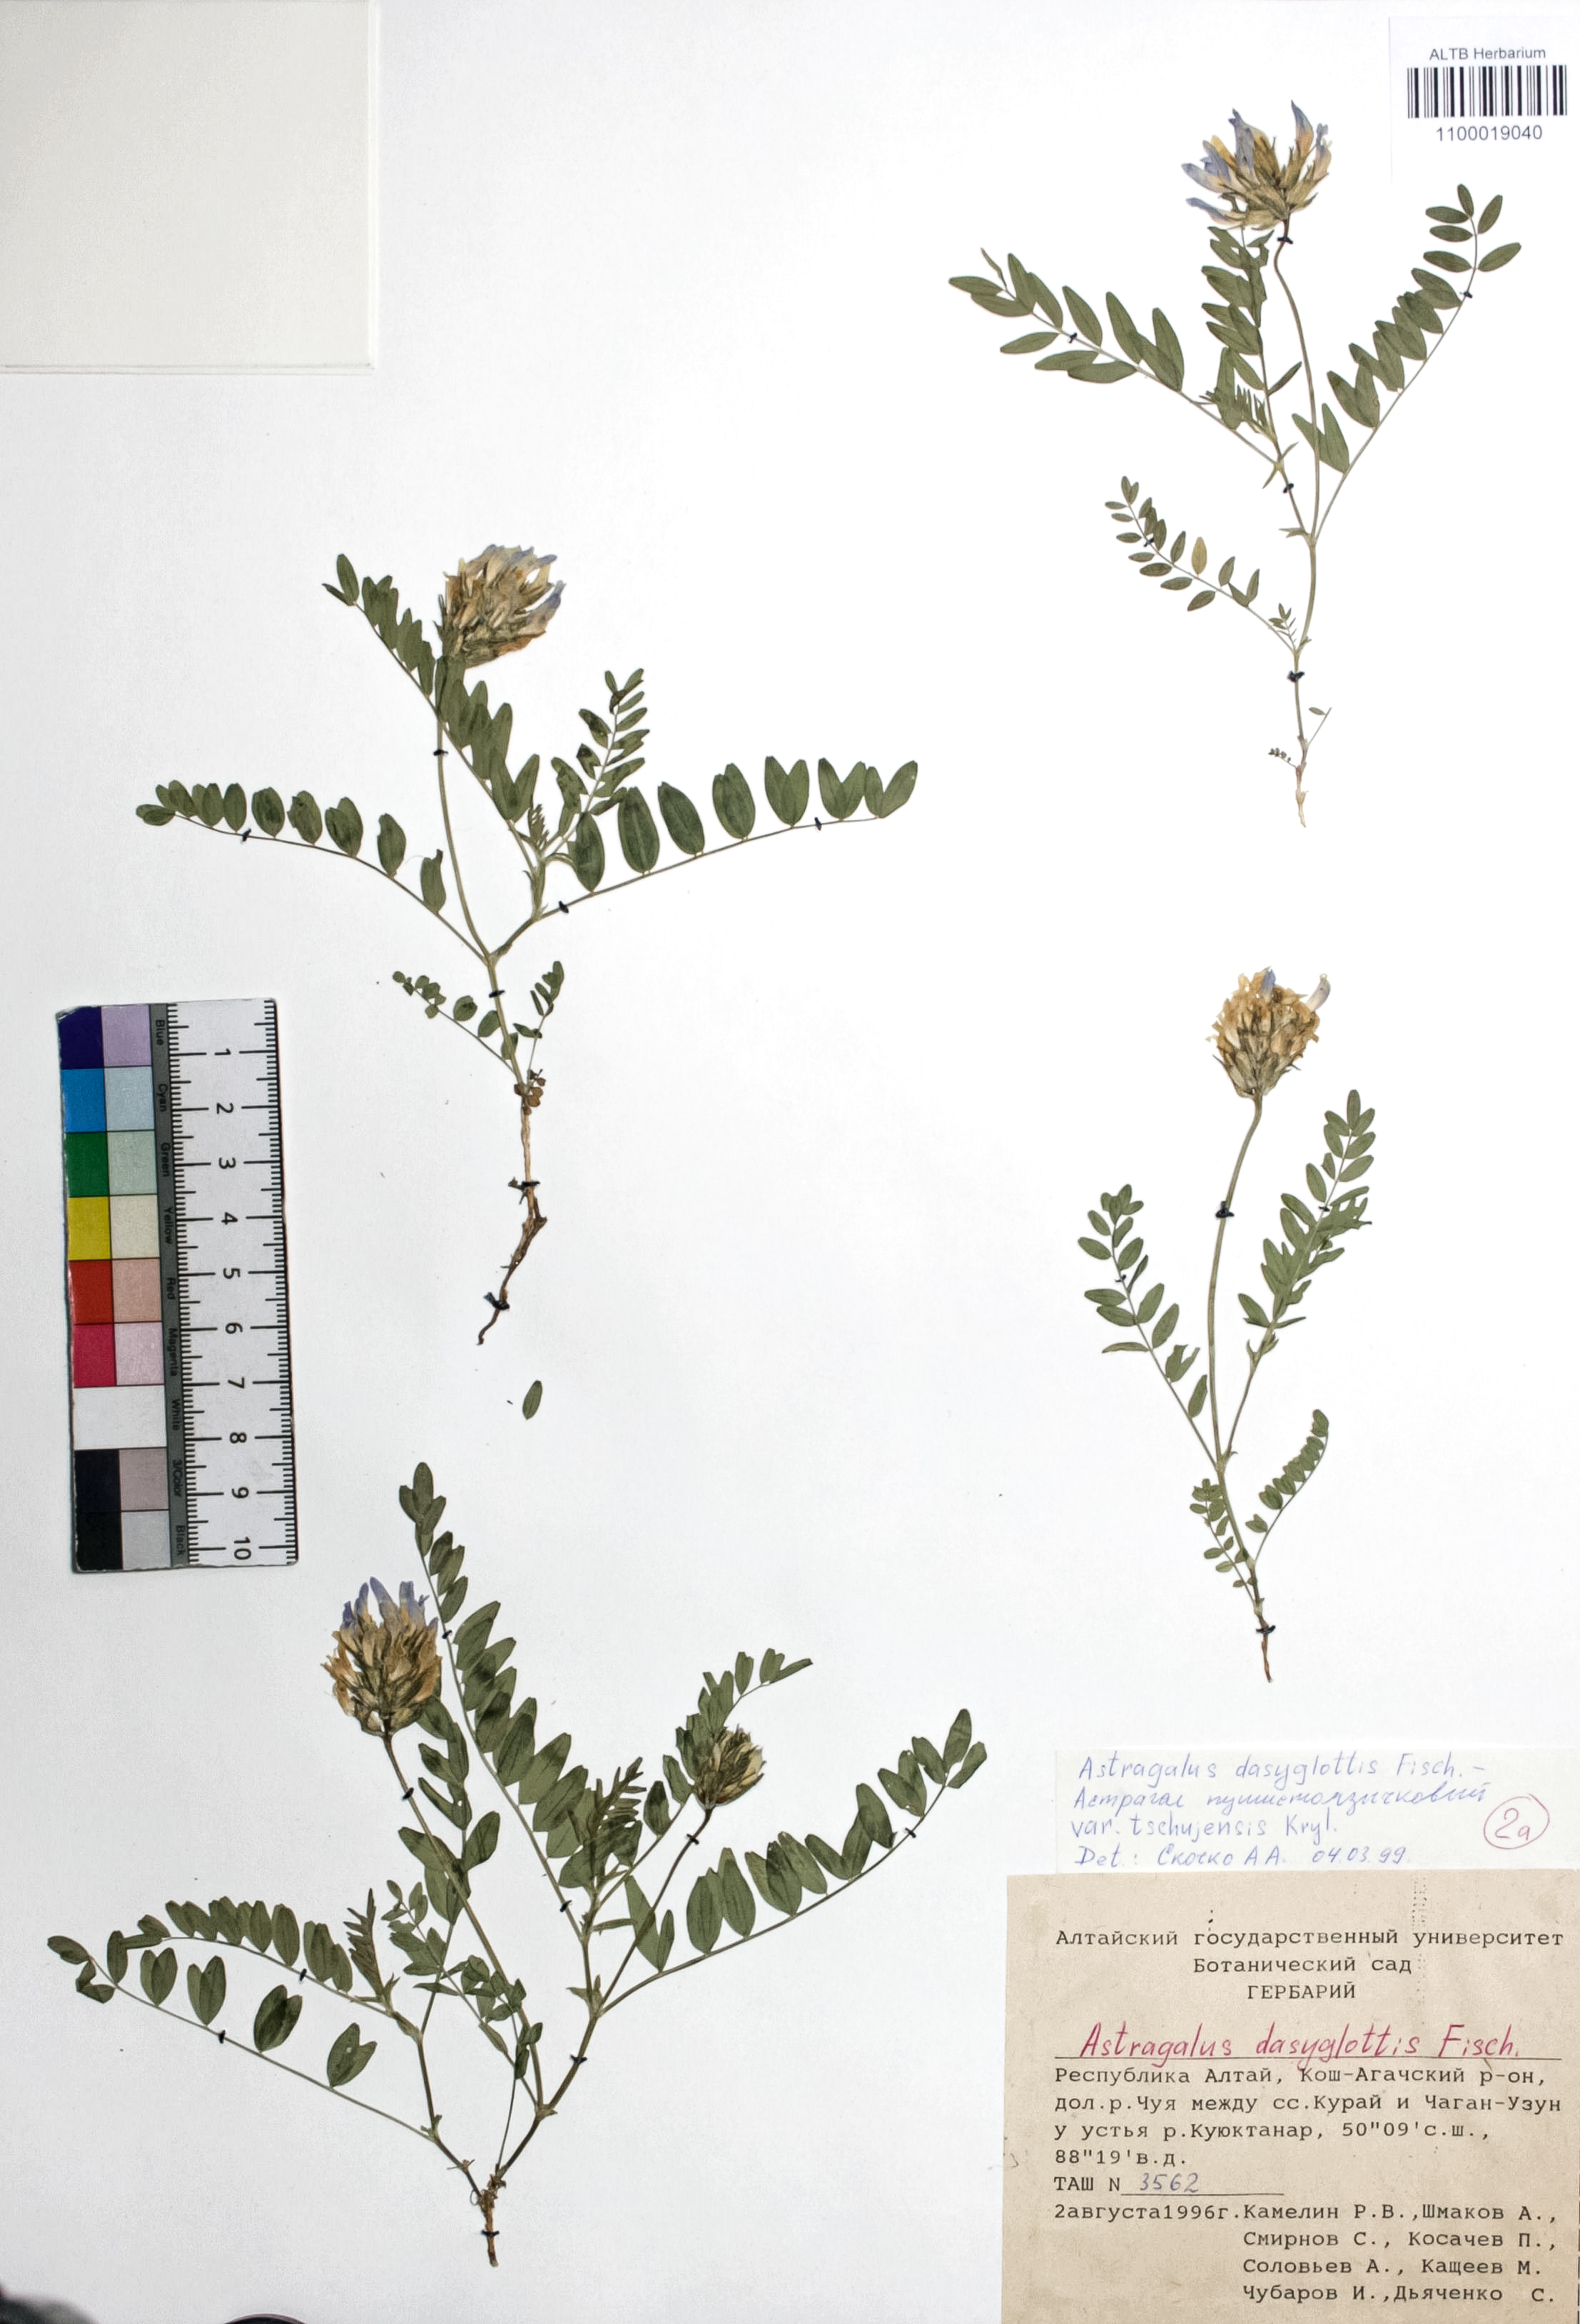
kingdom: Plantae
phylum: Tracheophyta
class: Magnoliopsida
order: Fabales
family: Fabaceae
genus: Astragalus
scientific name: Astragalus agrestis
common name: Field milk-vetch
